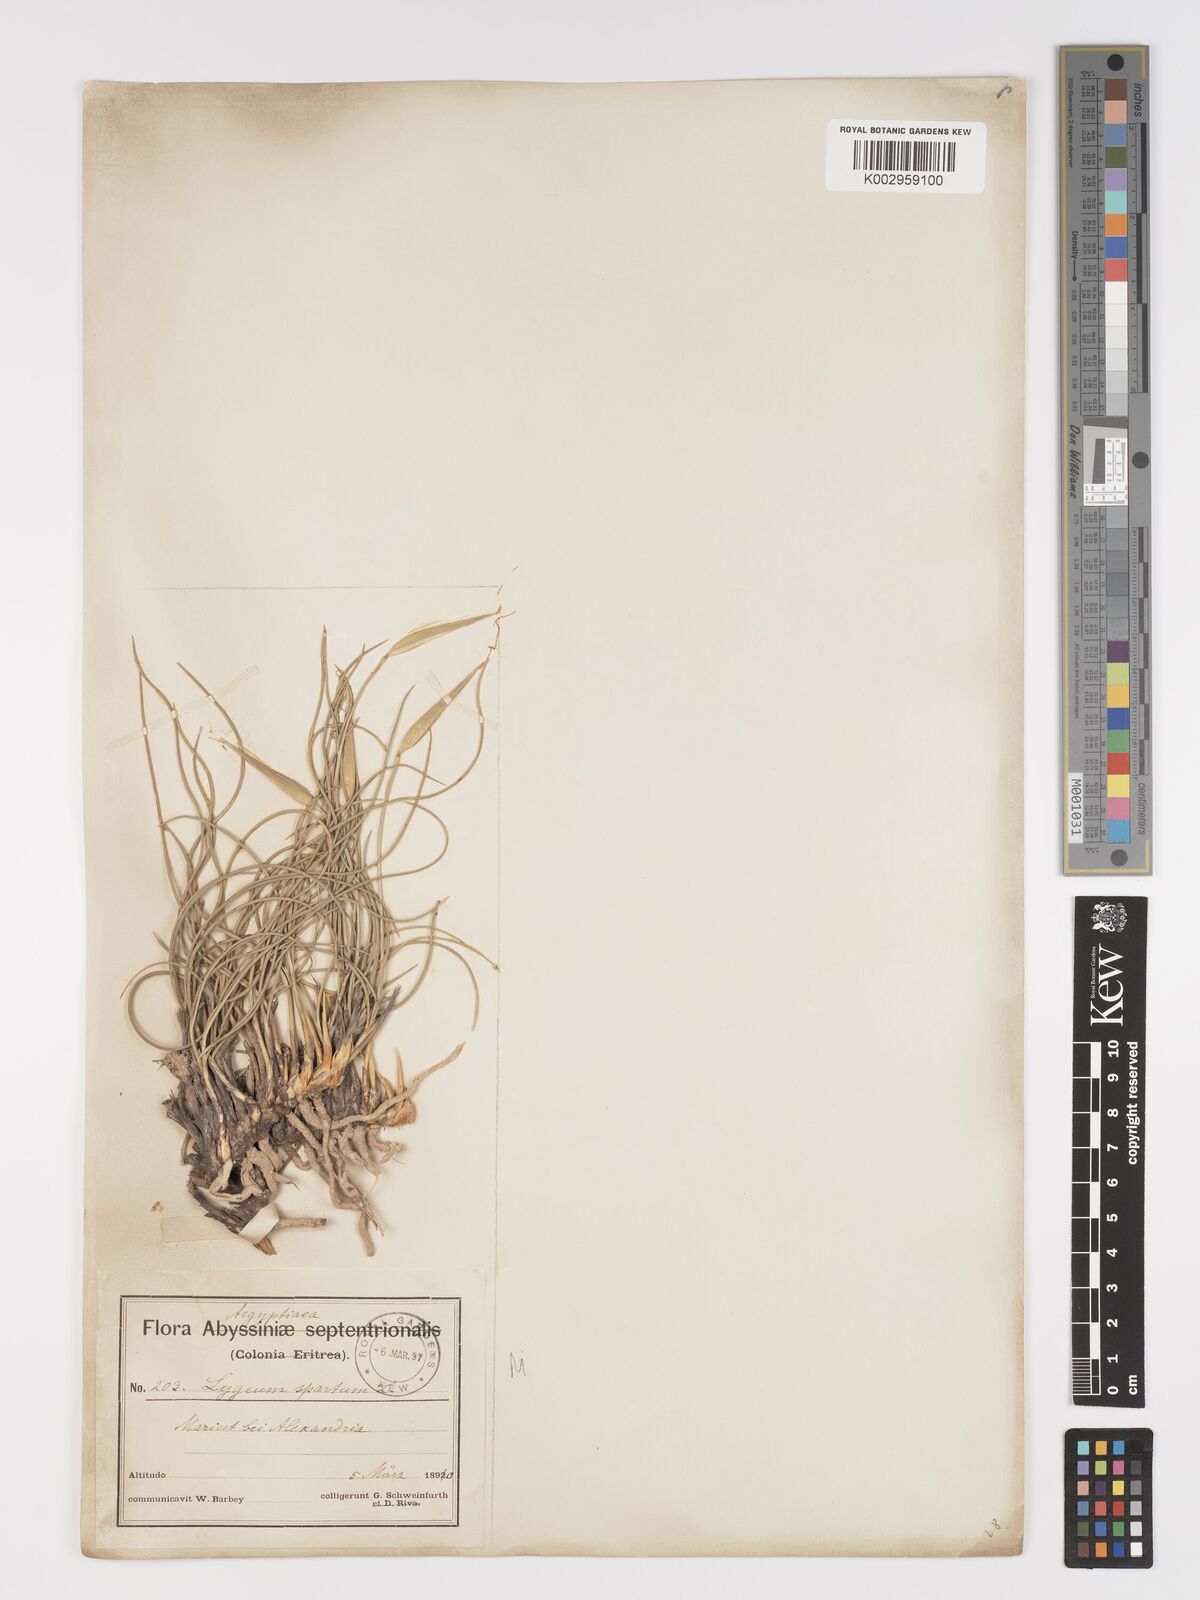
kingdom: Plantae
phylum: Tracheophyta
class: Liliopsida
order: Poales
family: Poaceae
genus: Lygeum
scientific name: Lygeum spartum
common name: Albardine
